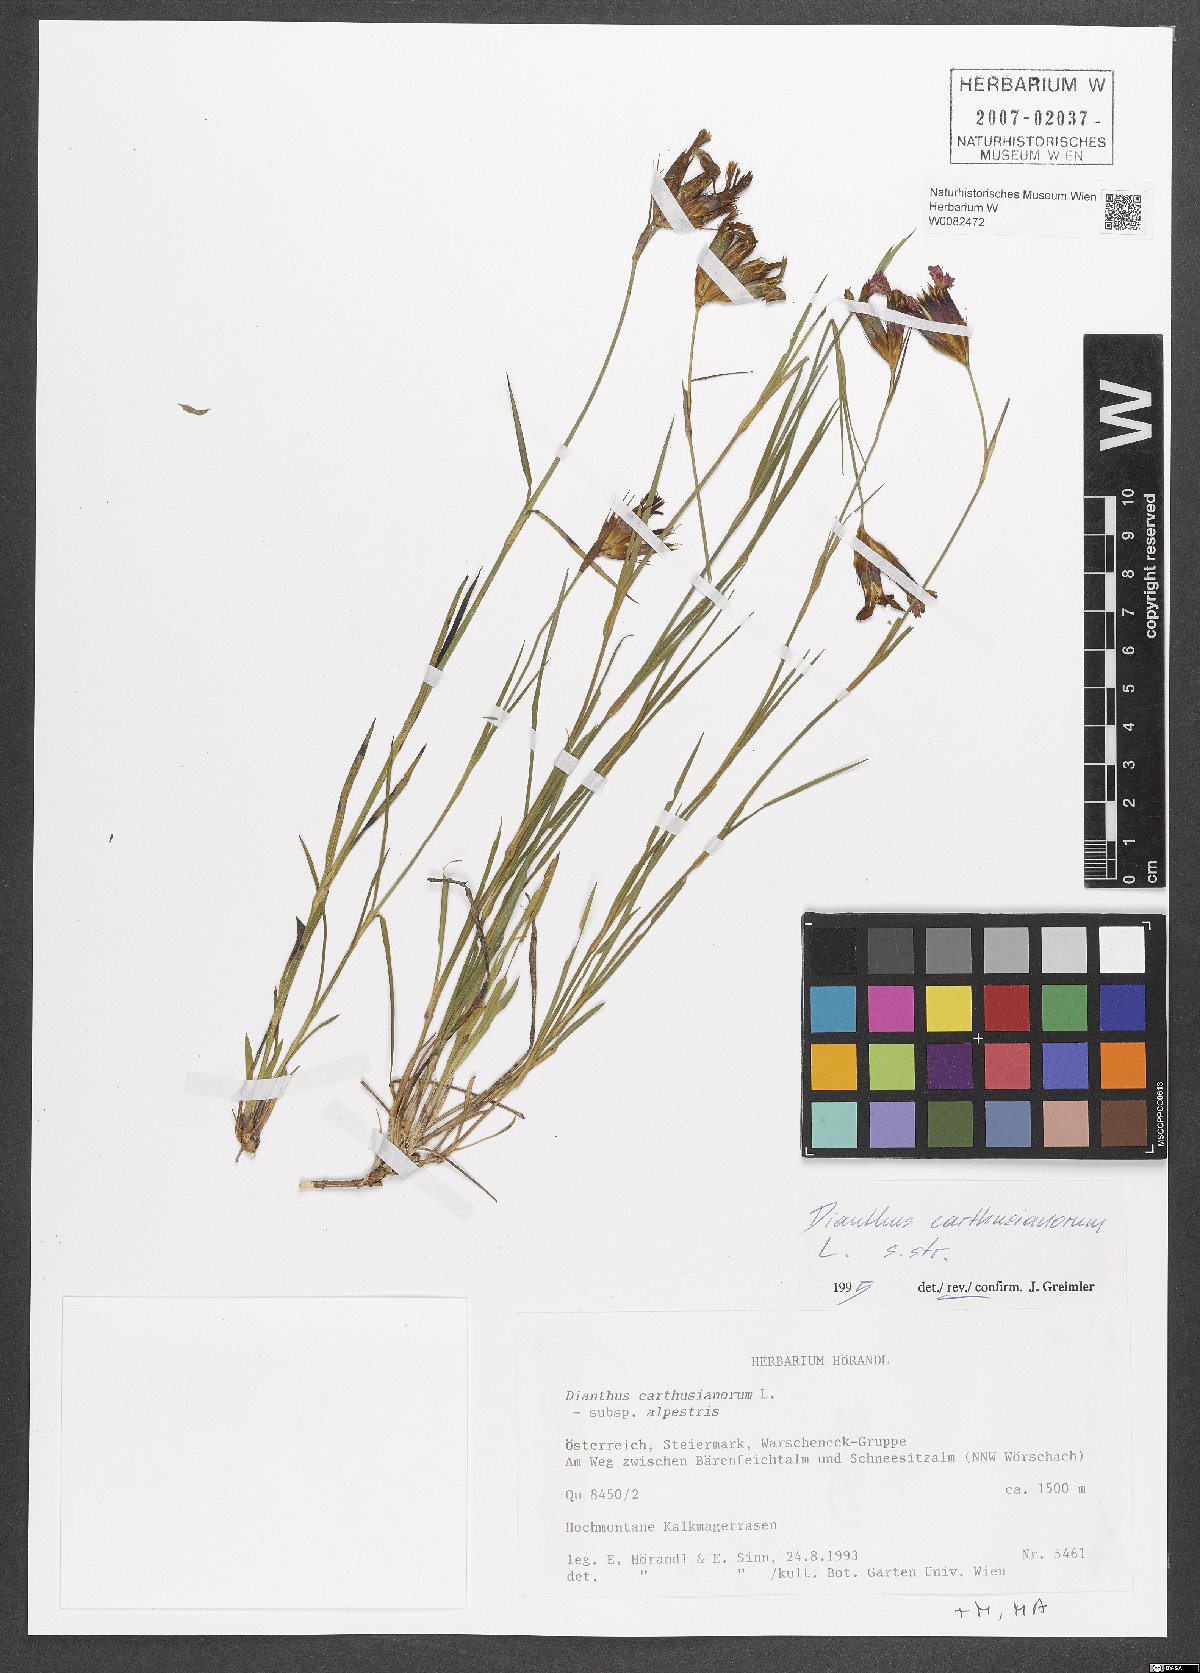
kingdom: Plantae
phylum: Tracheophyta
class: Magnoliopsida
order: Caryophyllales
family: Caryophyllaceae
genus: Dianthus
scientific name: Dianthus carthusianorum
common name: Carthusian pink
